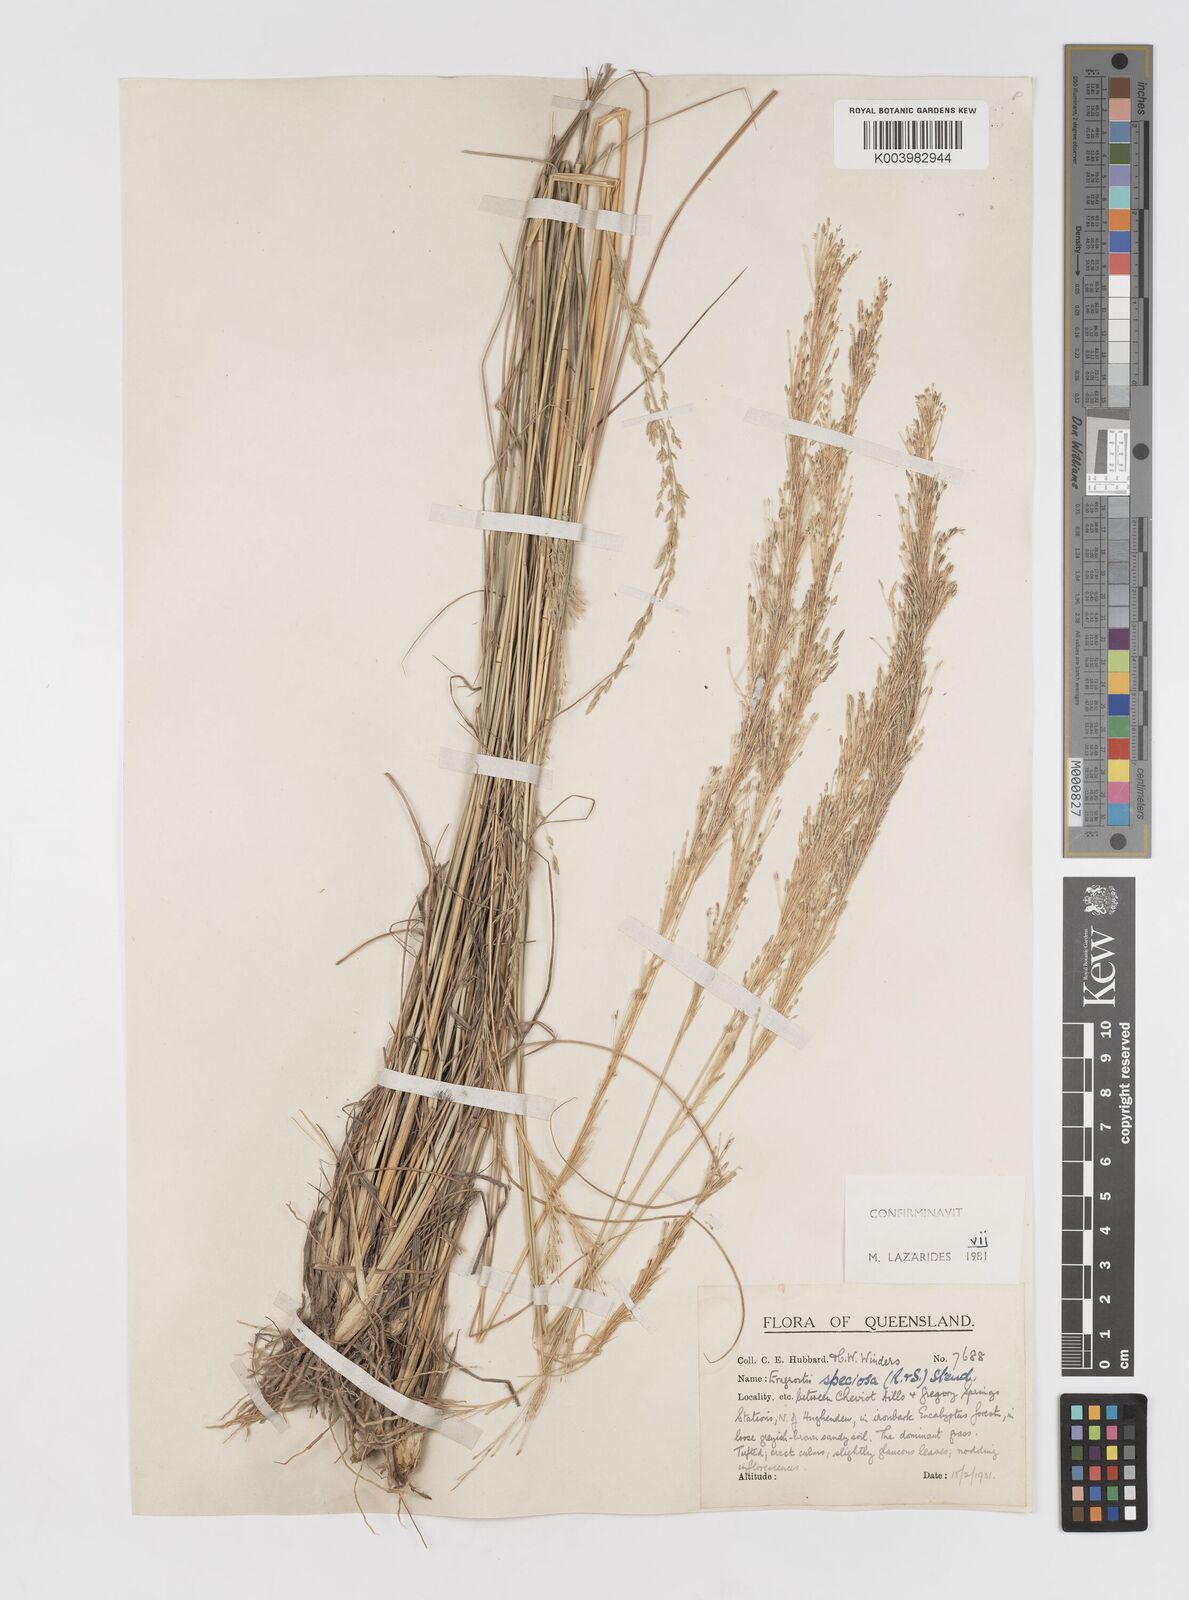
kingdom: Plantae
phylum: Tracheophyta
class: Liliopsida
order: Poales
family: Poaceae
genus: Eragrostis
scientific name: Eragrostis speciosa
